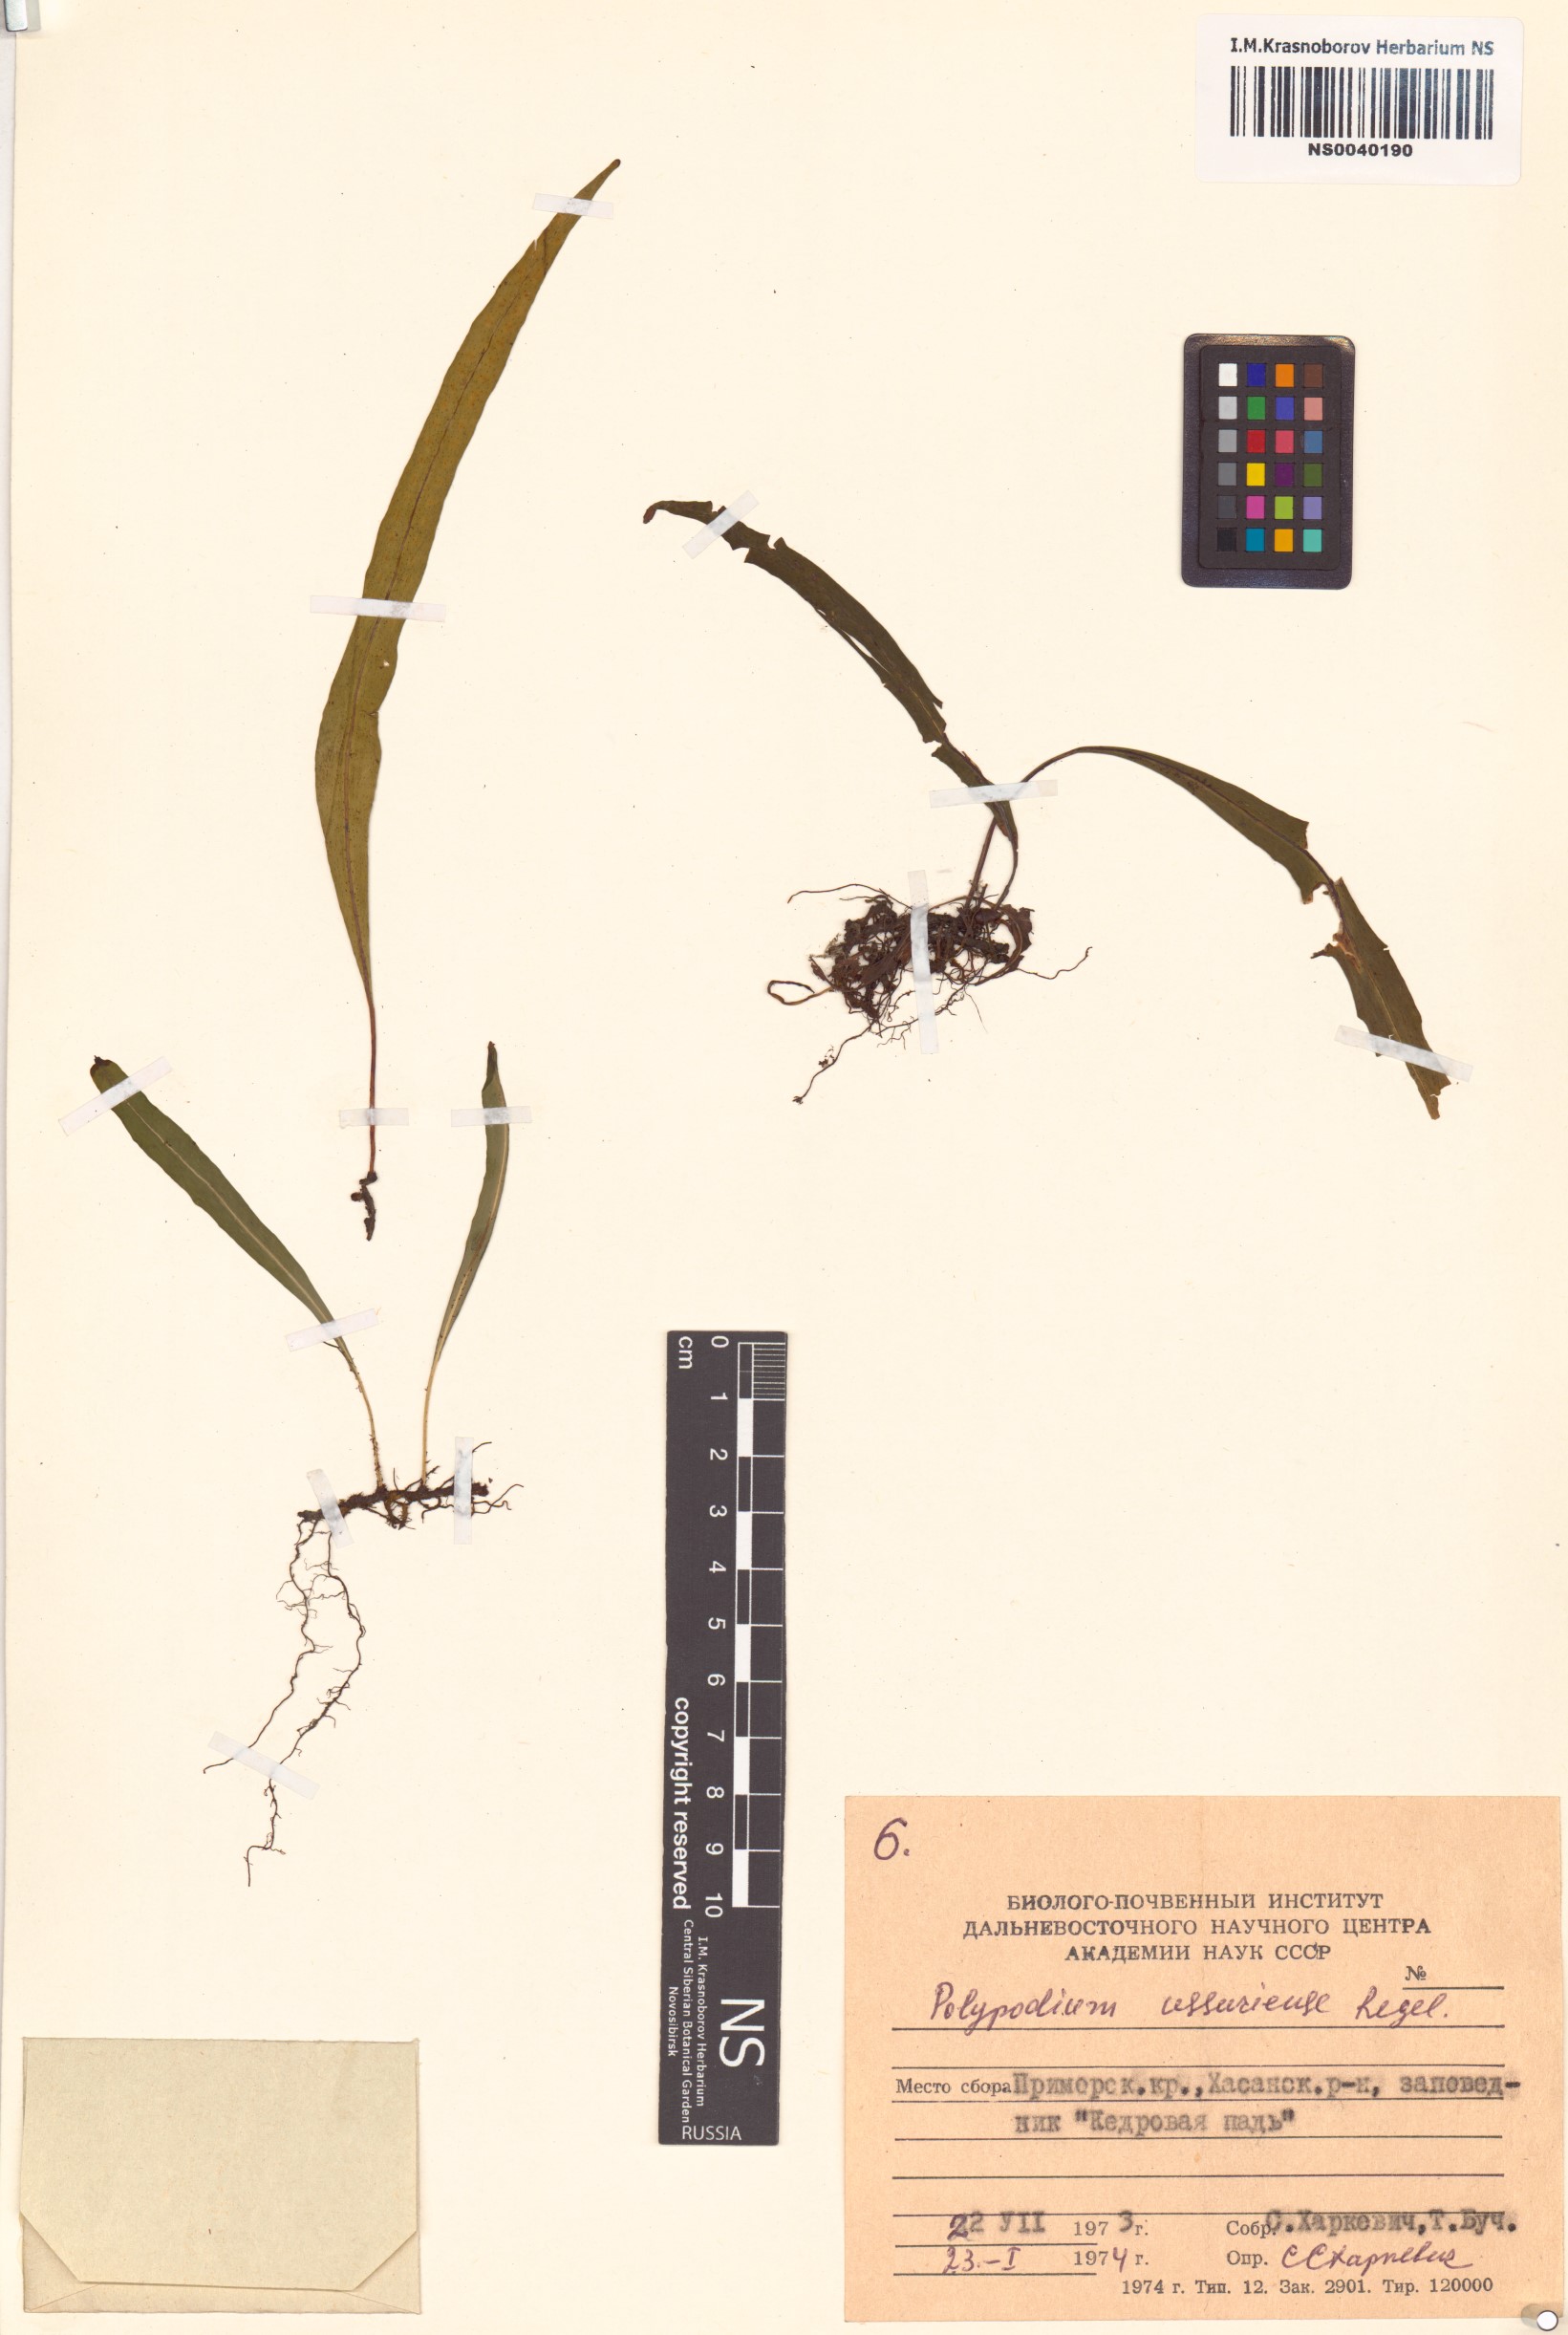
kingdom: Plantae
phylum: Tracheophyta
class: Polypodiopsida
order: Polypodiales
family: Polypodiaceae
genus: Lepisorus
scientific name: Lepisorus ussuriensis
